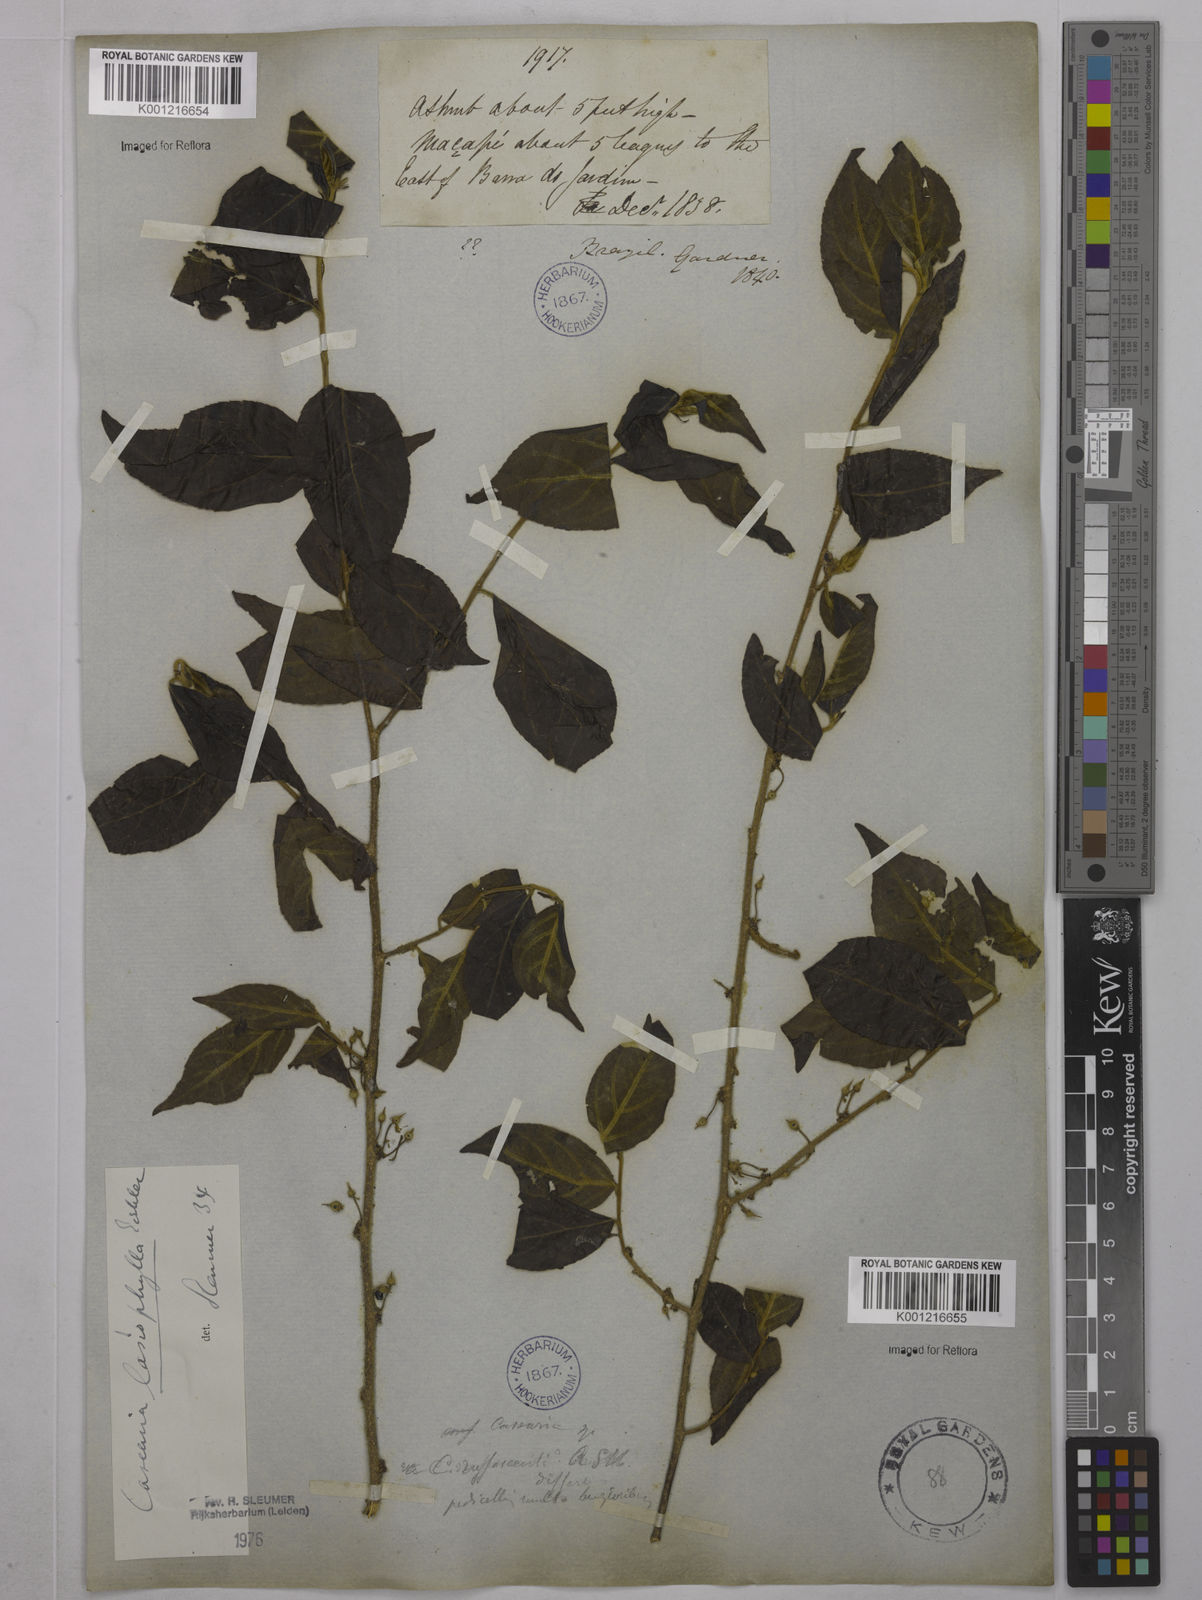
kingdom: Plantae
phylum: Tracheophyta
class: Magnoliopsida
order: Malpighiales
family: Salicaceae
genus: Casearia
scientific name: Casearia lasiophylla
